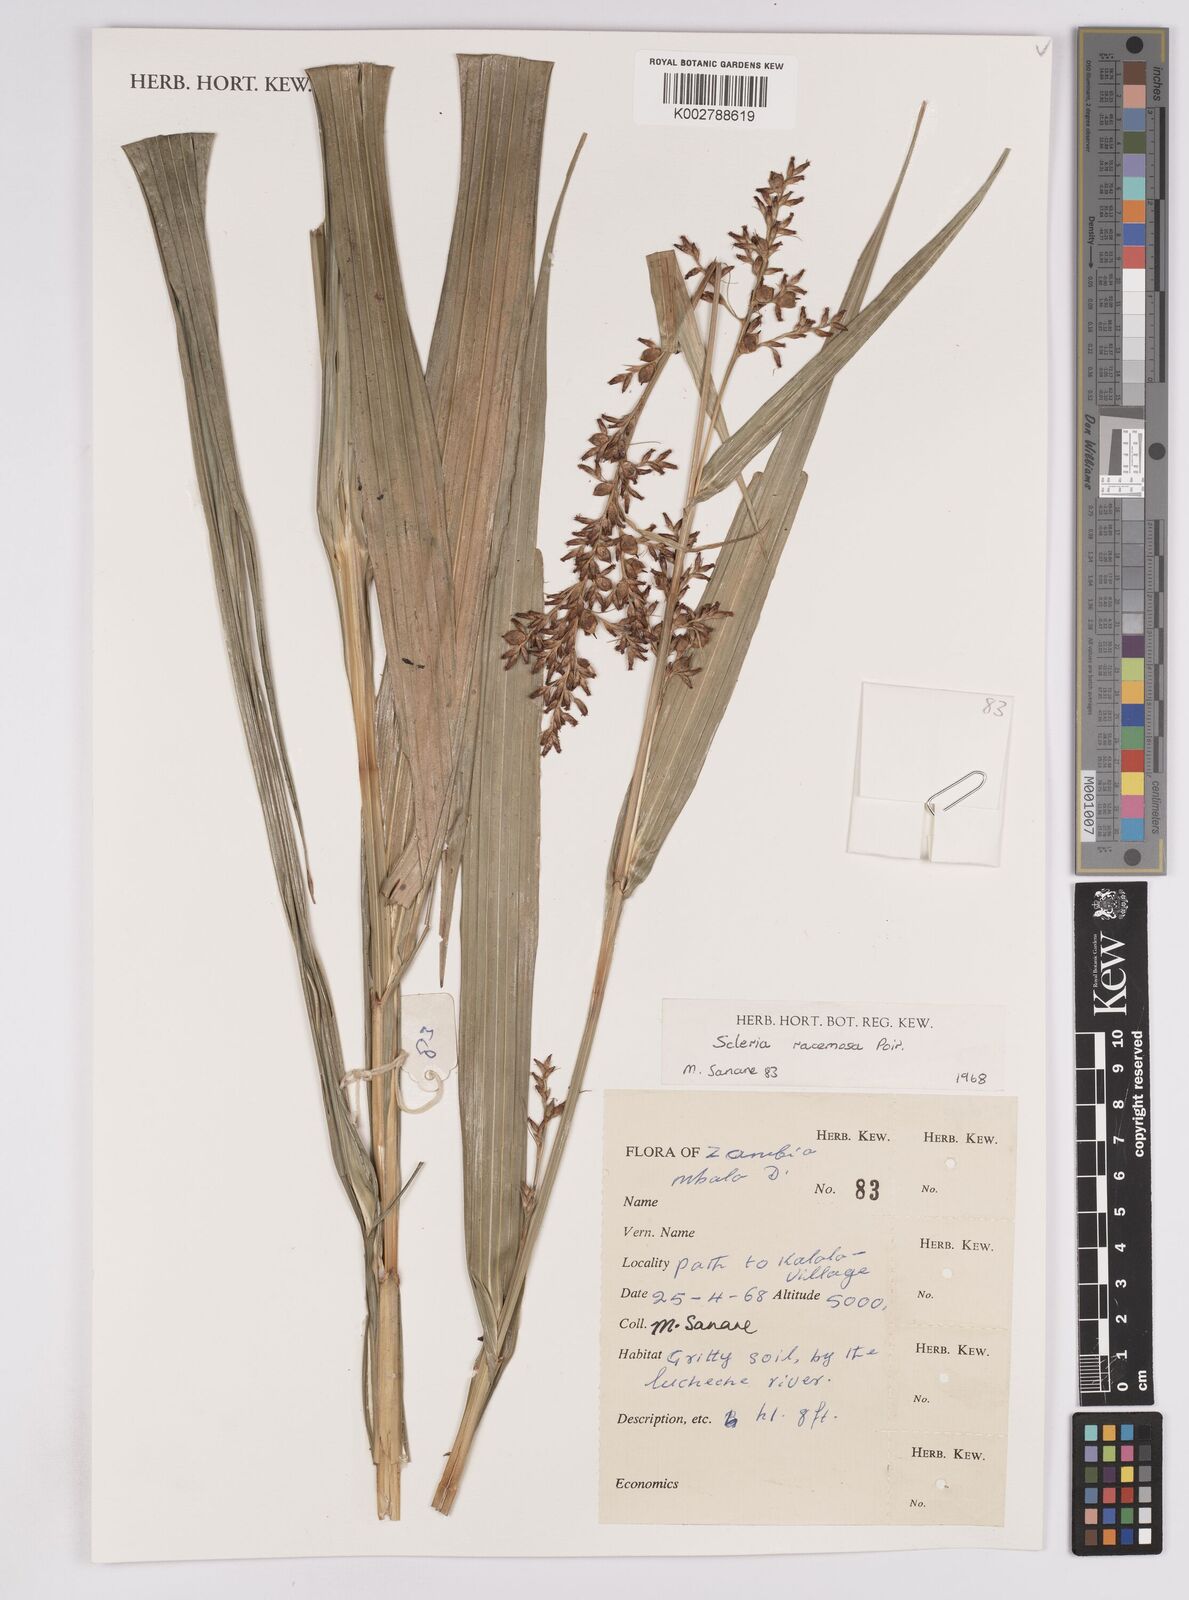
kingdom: Plantae
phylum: Tracheophyta
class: Liliopsida
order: Poales
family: Cyperaceae
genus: Scleria
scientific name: Scleria racemosa
